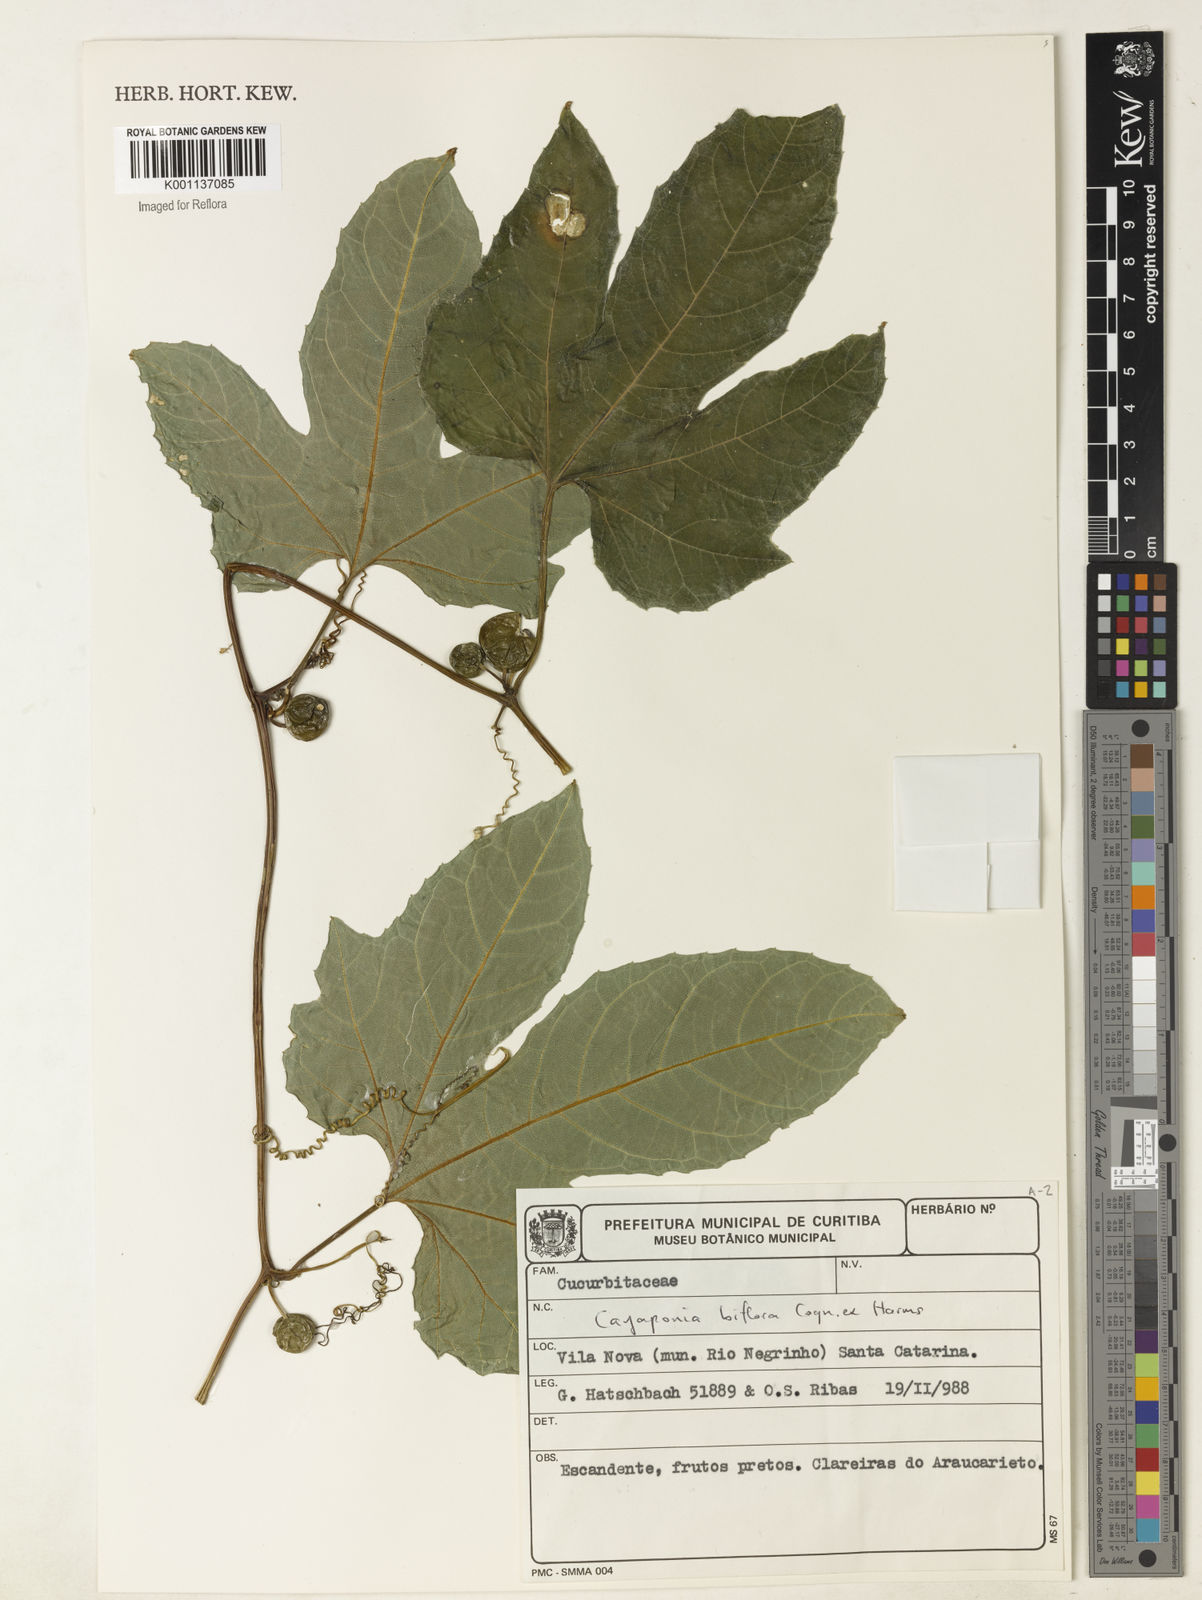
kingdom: Plantae
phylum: Tracheophyta
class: Magnoliopsida
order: Cucurbitales
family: Cucurbitaceae
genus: Cayaponia
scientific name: Cayaponia biflora
